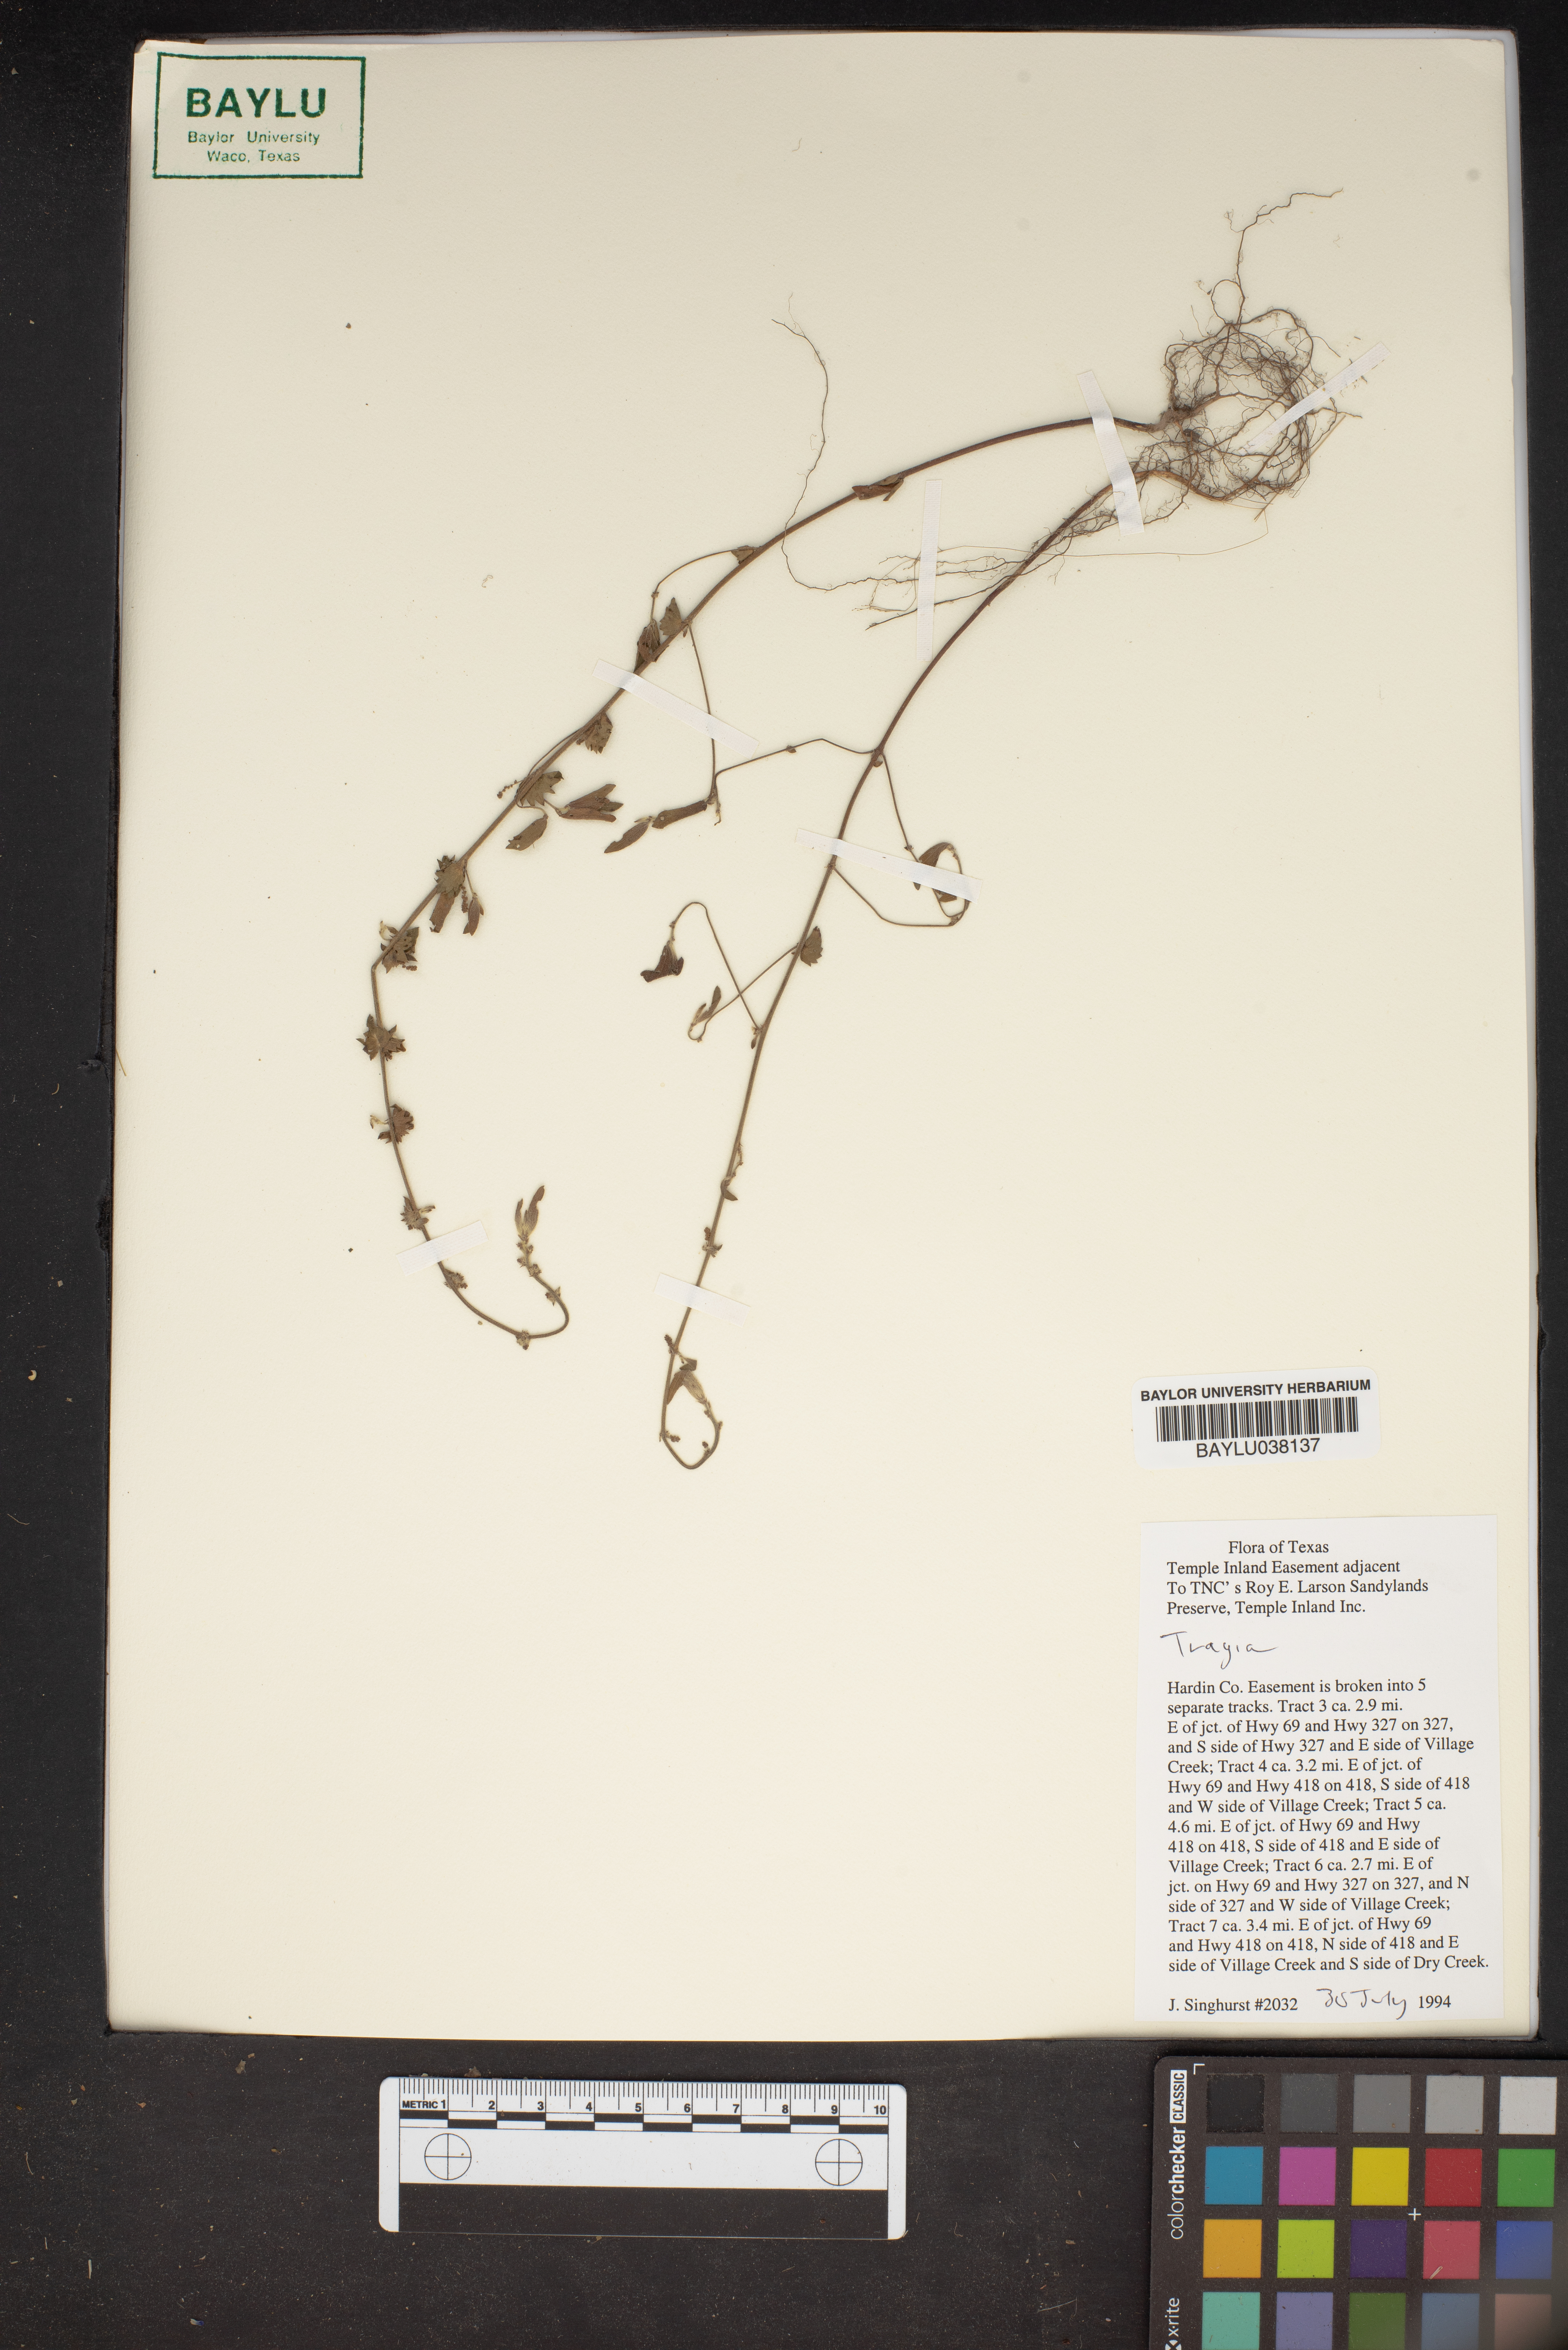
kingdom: Plantae
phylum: Tracheophyta
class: Magnoliopsida
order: Malpighiales
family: Euphorbiaceae
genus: Tragia
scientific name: Tragia
